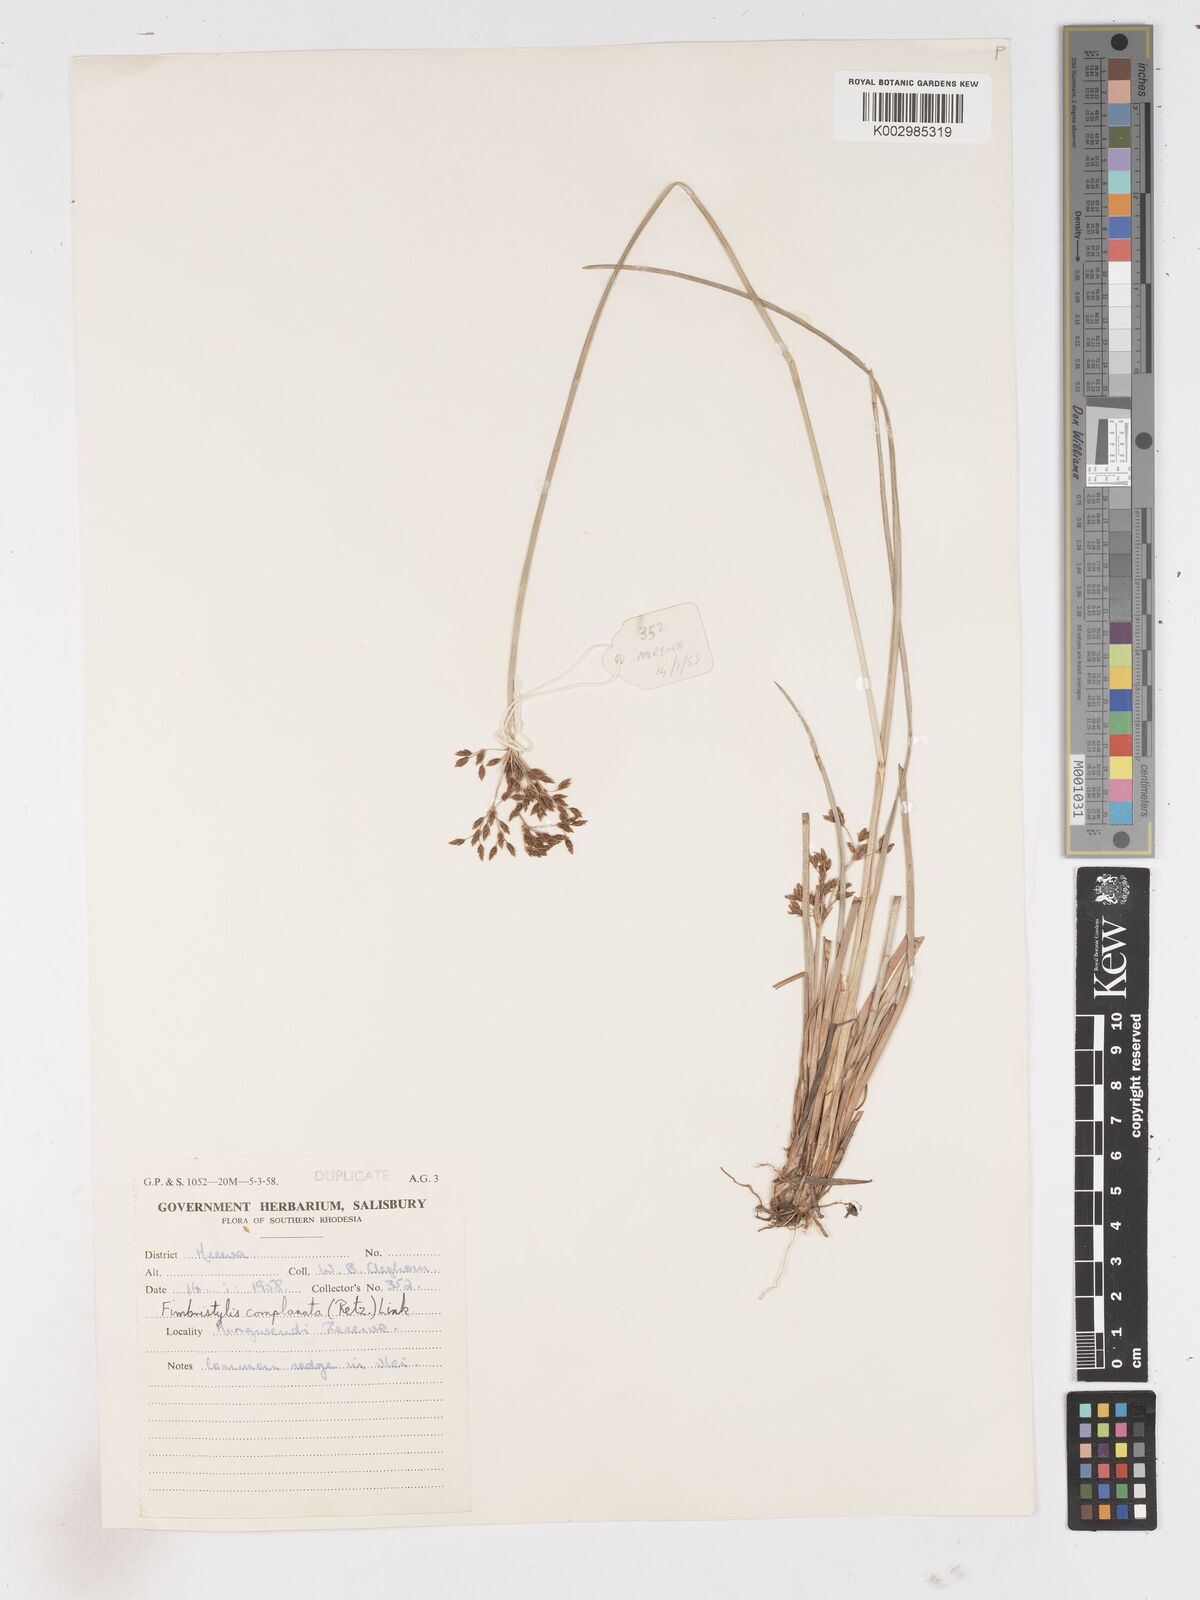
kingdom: Plantae
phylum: Tracheophyta
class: Liliopsida
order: Poales
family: Cyperaceae
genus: Fimbristylis
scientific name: Fimbristylis complanata
